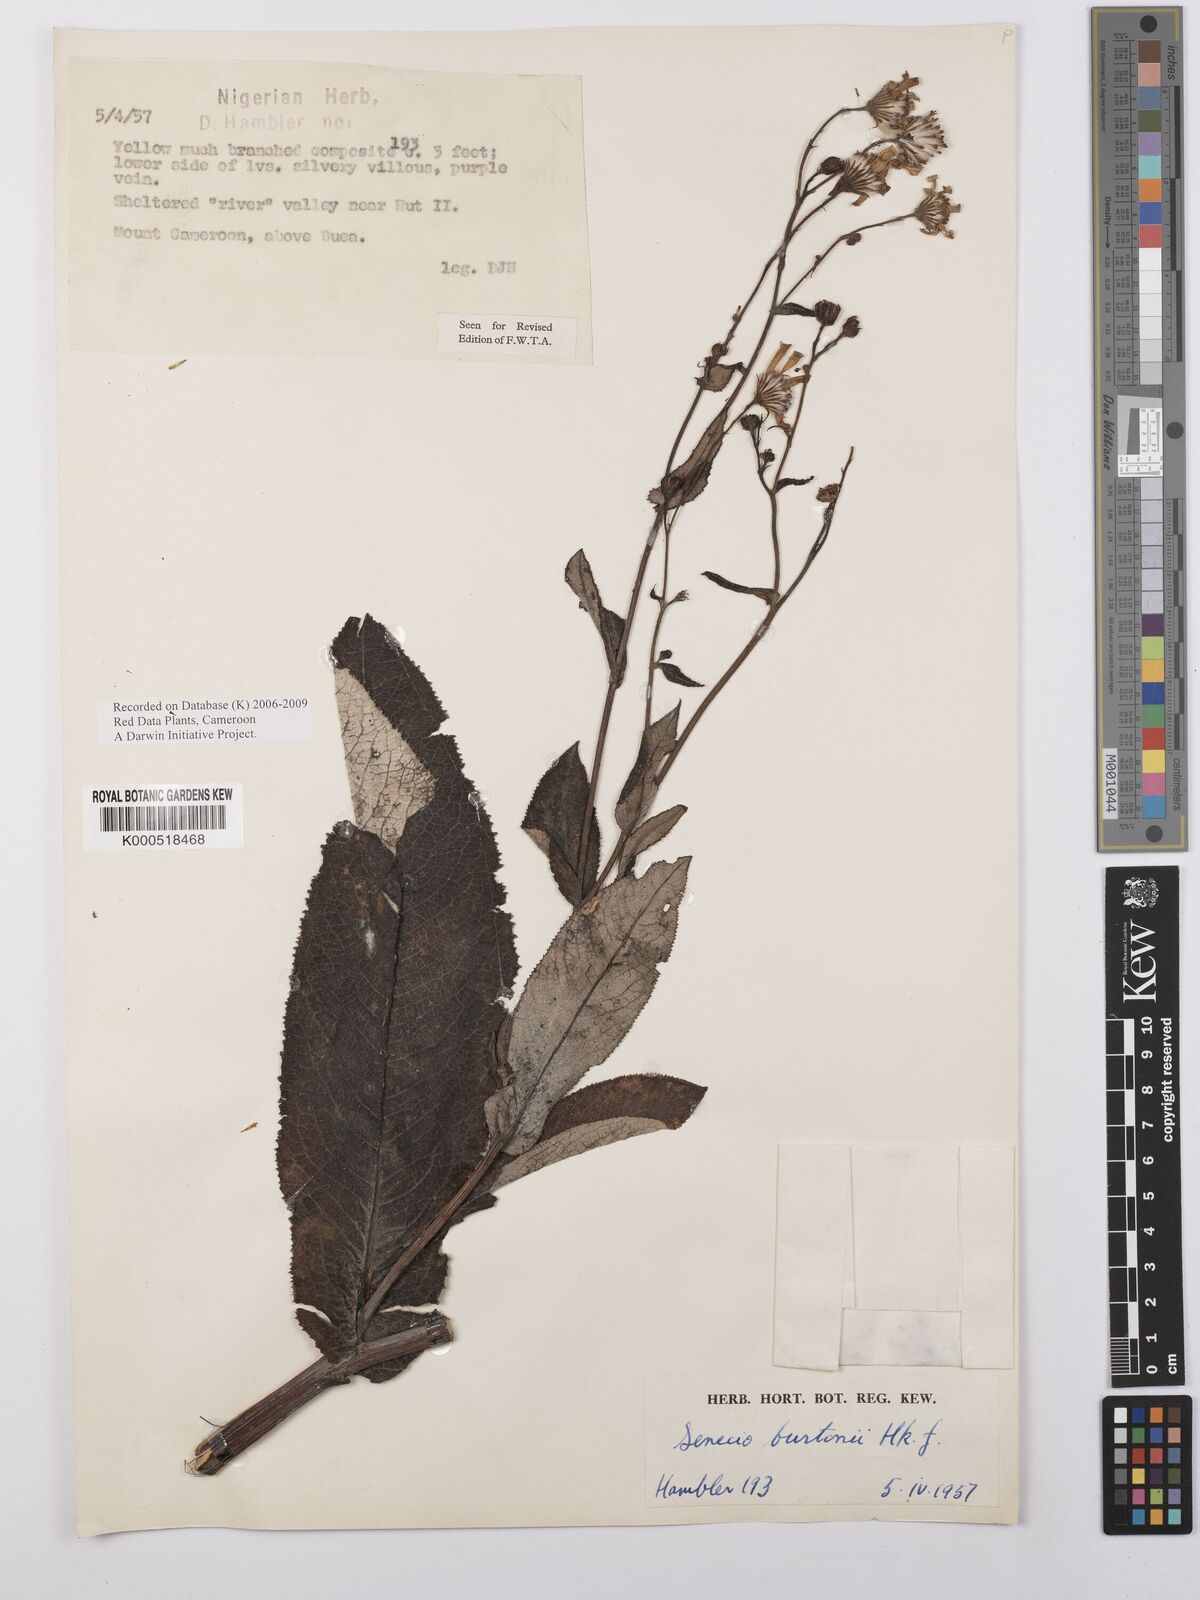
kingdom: Plantae
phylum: Tracheophyta
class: Magnoliopsida
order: Asterales
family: Asteraceae
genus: Senecio
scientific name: Senecio burtonii
